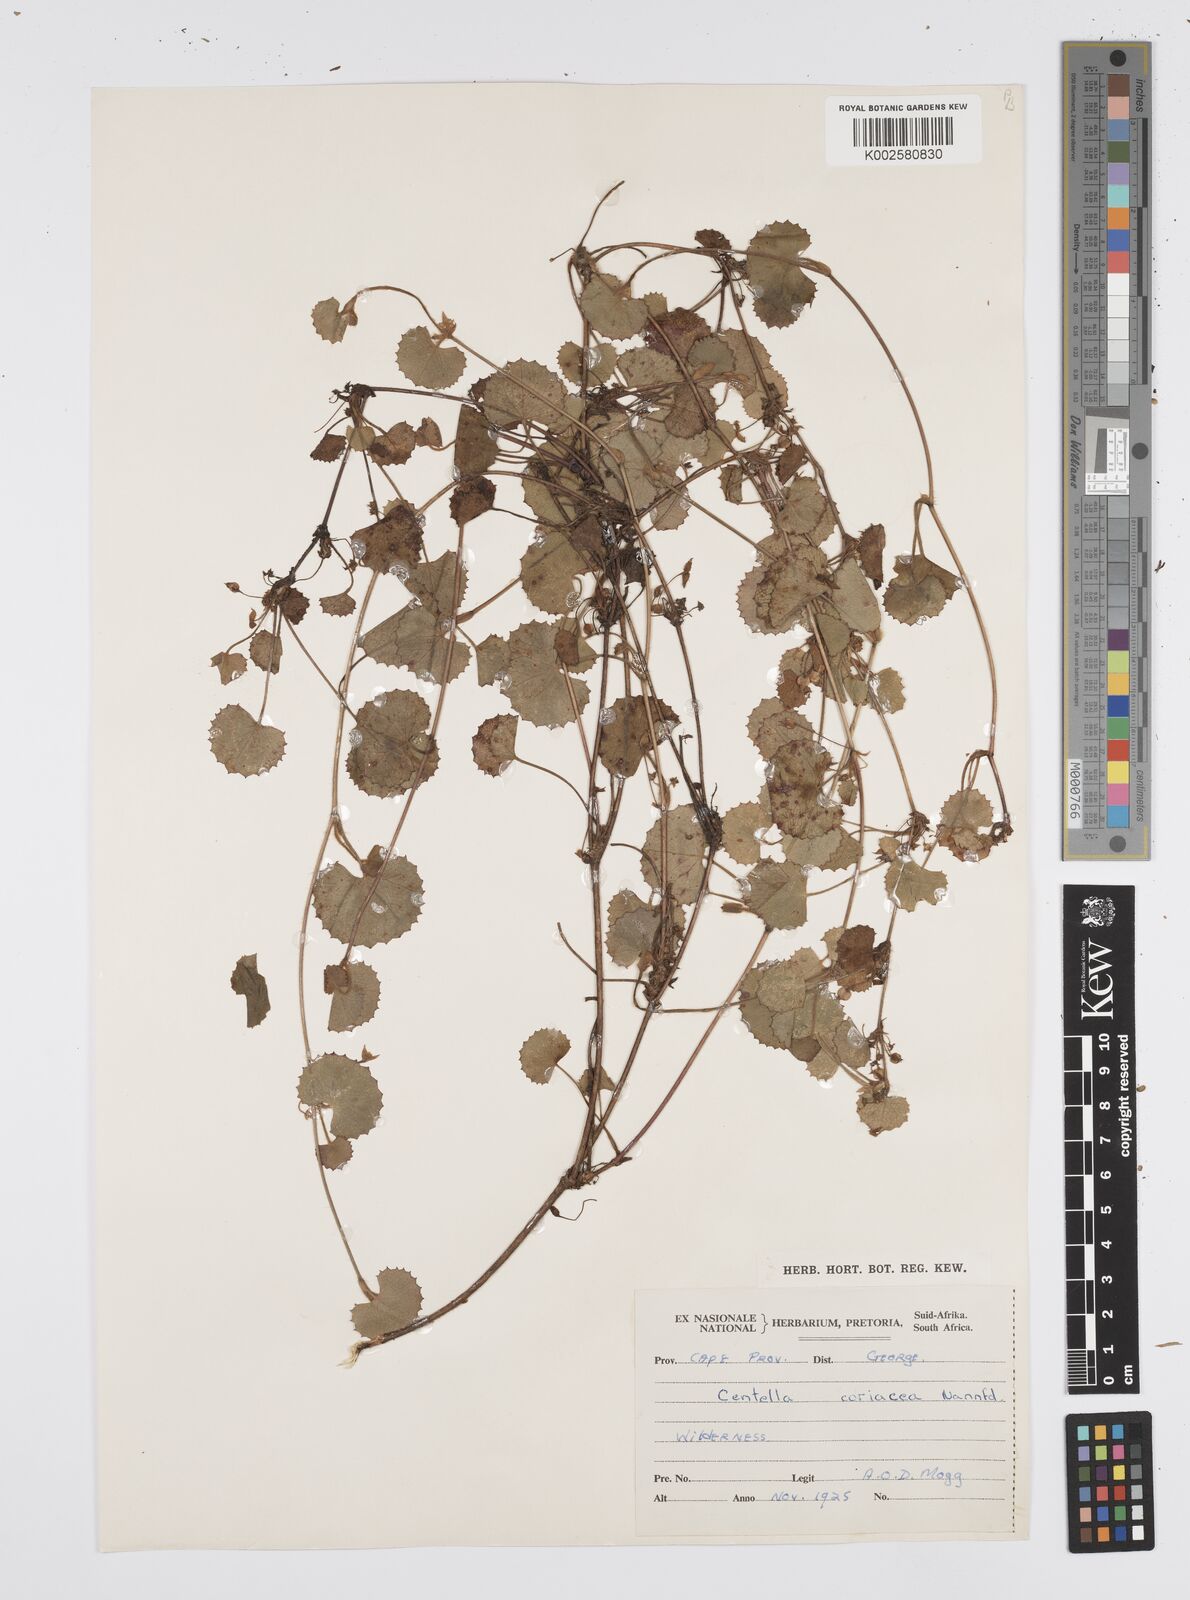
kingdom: Plantae
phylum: Tracheophyta
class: Magnoliopsida
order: Apiales
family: Apiaceae
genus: Centella
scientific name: Centella coriacea
